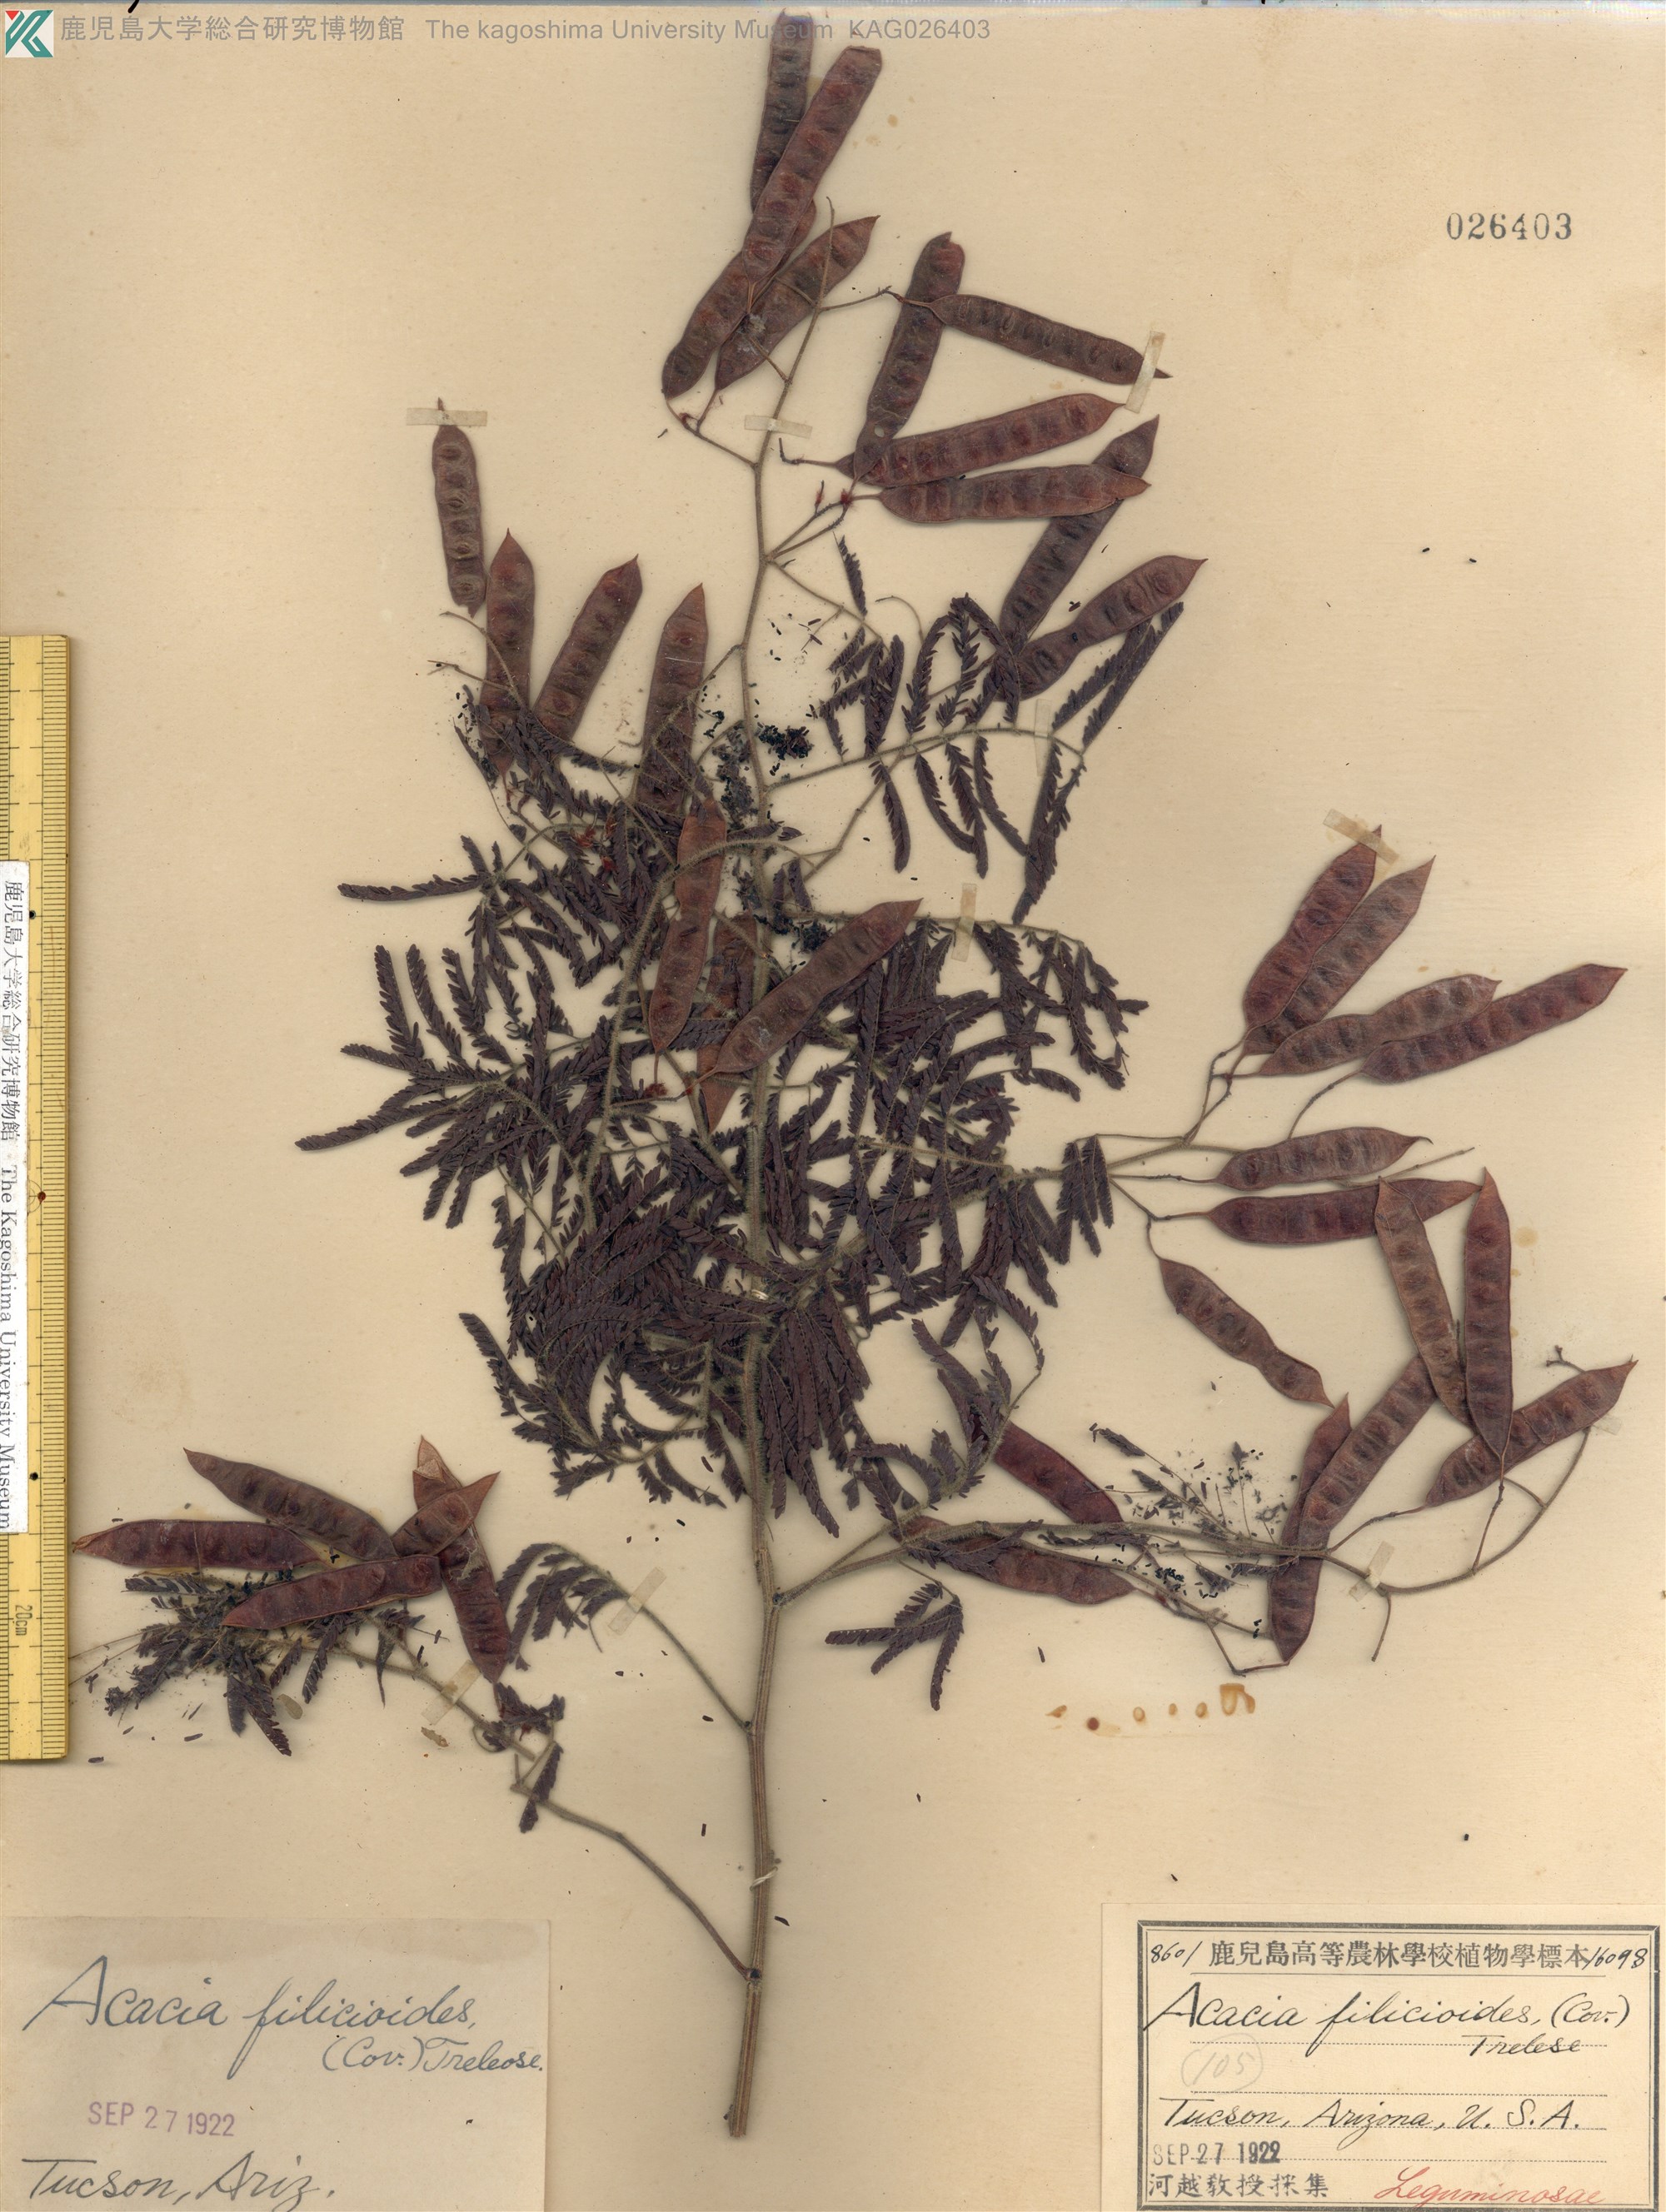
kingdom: Plantae
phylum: Tracheophyta
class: Magnoliopsida
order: Fabales
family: Fabaceae
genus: Acaciella
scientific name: Acaciella angustissima
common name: Prairie acacia
